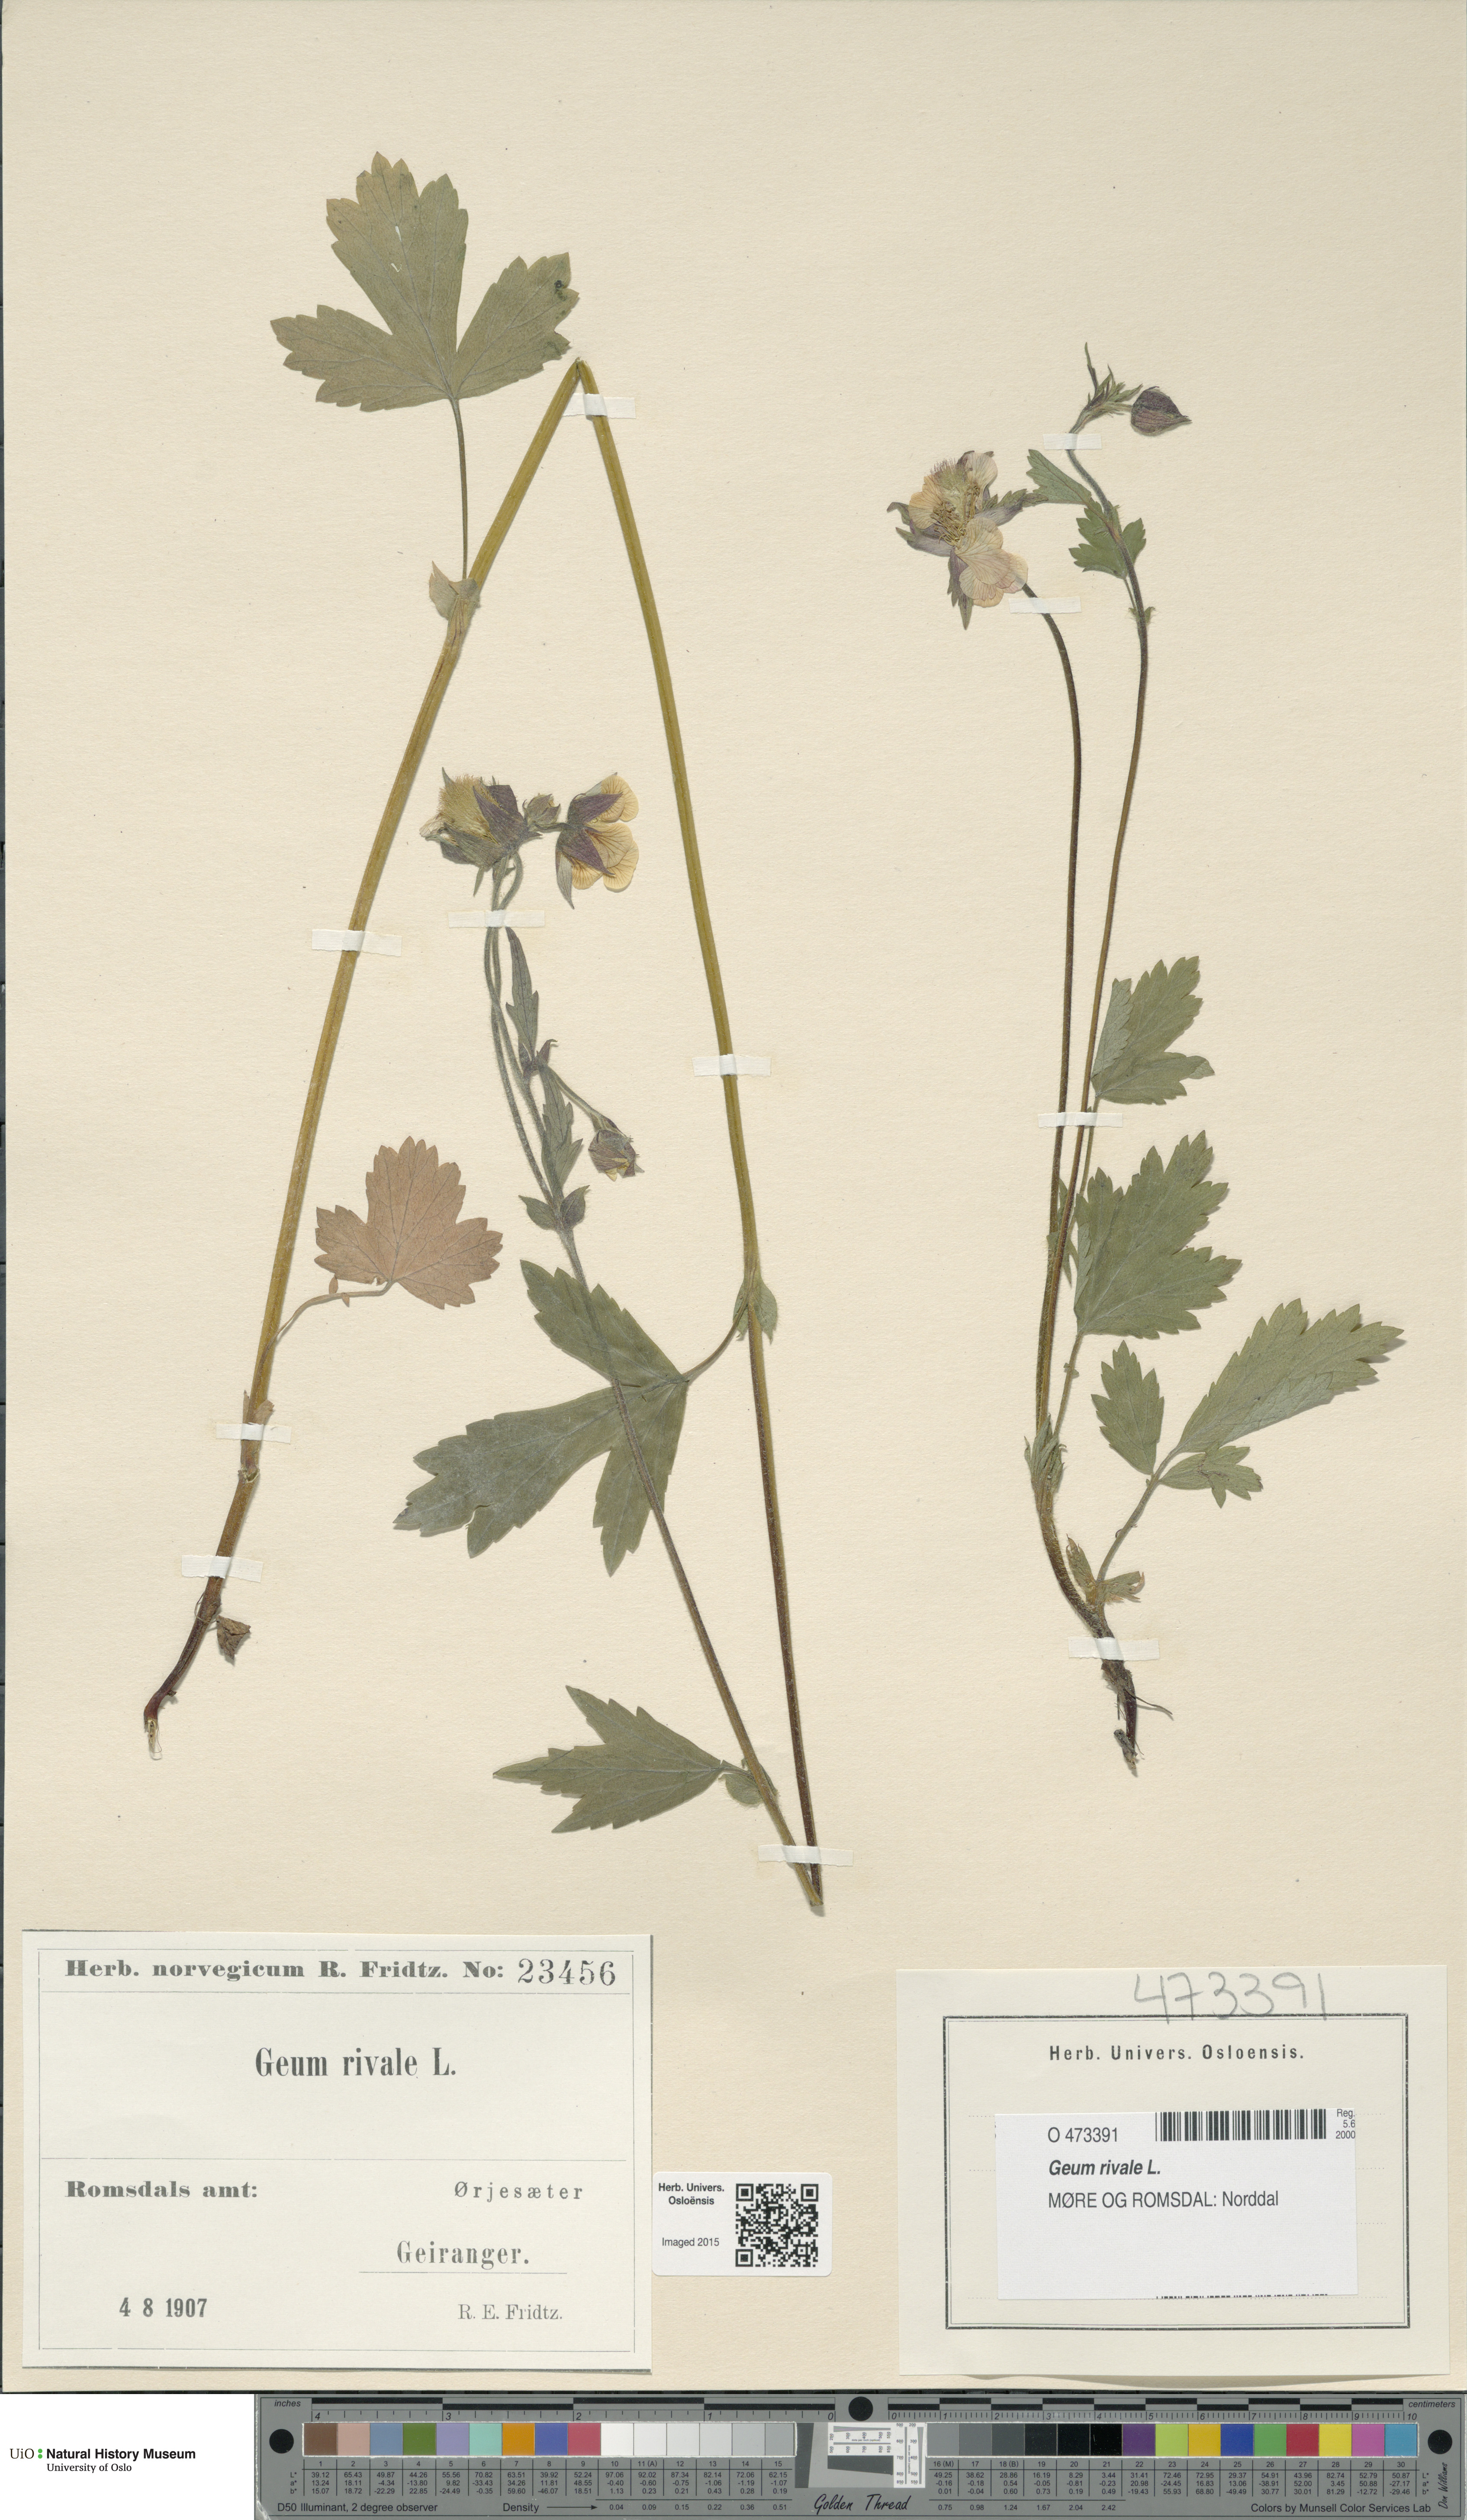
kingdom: Plantae
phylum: Tracheophyta
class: Magnoliopsida
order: Rosales
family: Rosaceae
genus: Geum
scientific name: Geum rivale
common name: Water avens
